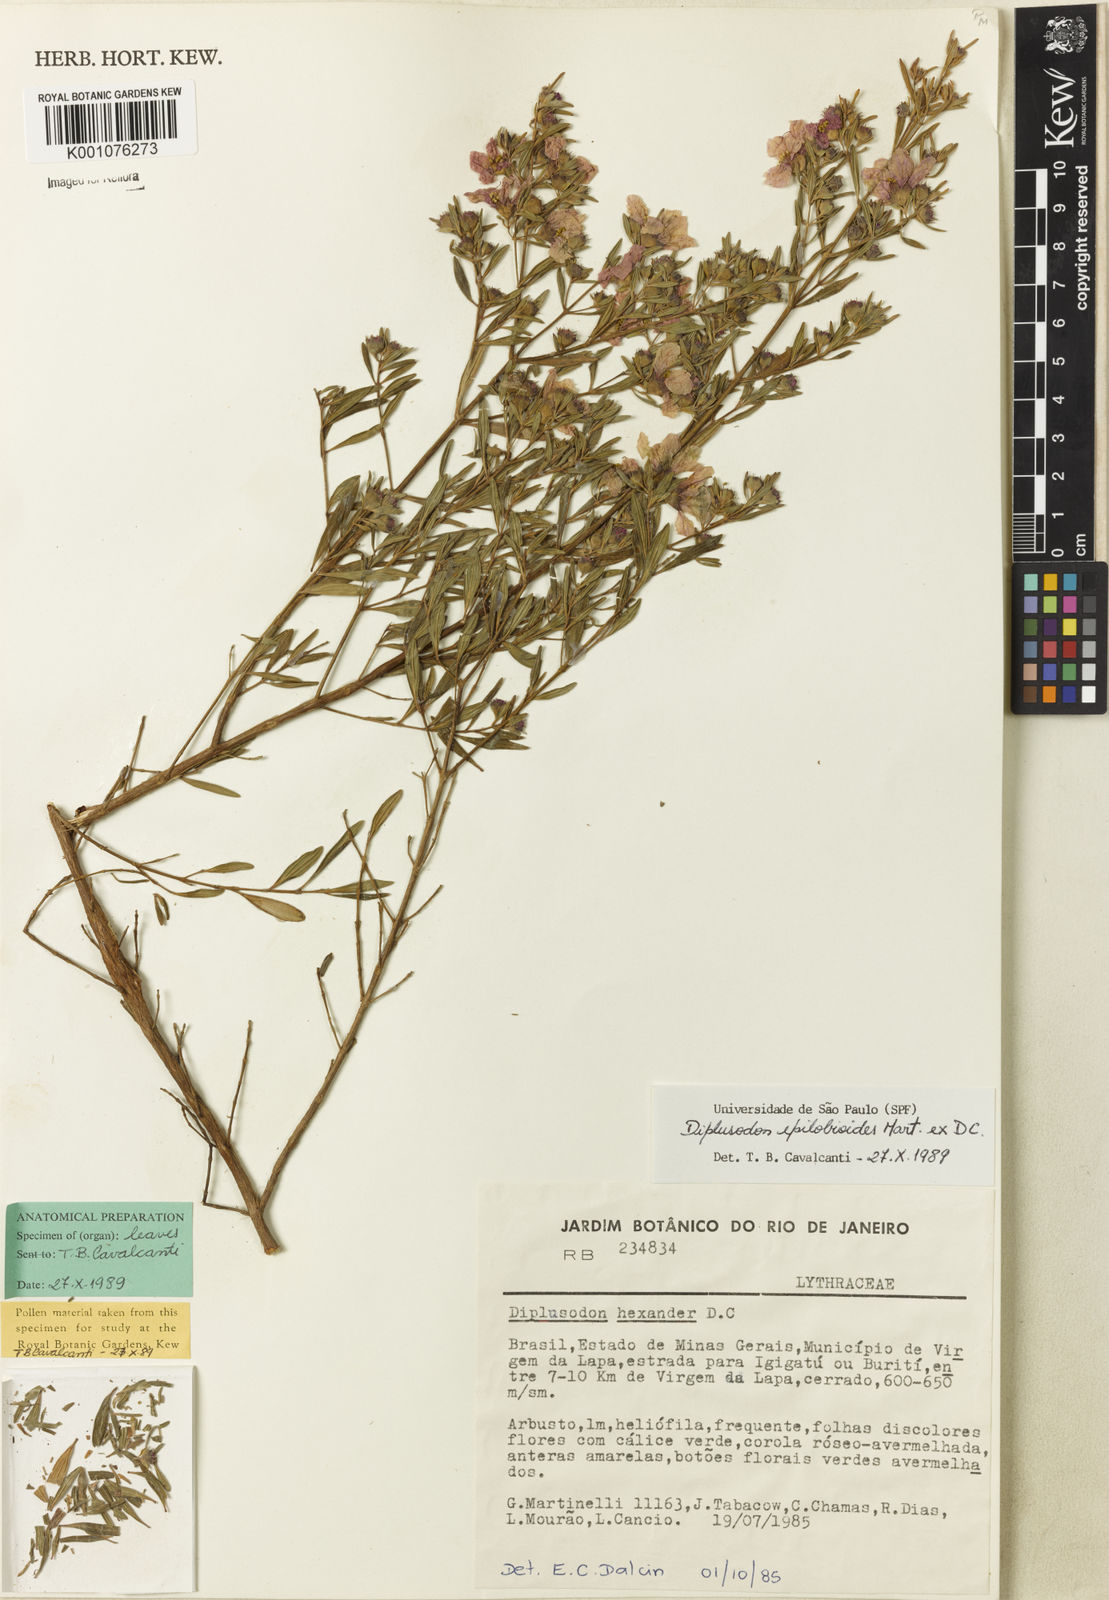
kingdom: Plantae
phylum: Tracheophyta
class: Magnoliopsida
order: Myrtales
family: Lythraceae
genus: Diplusodon
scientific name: Diplusodon epilobioides
